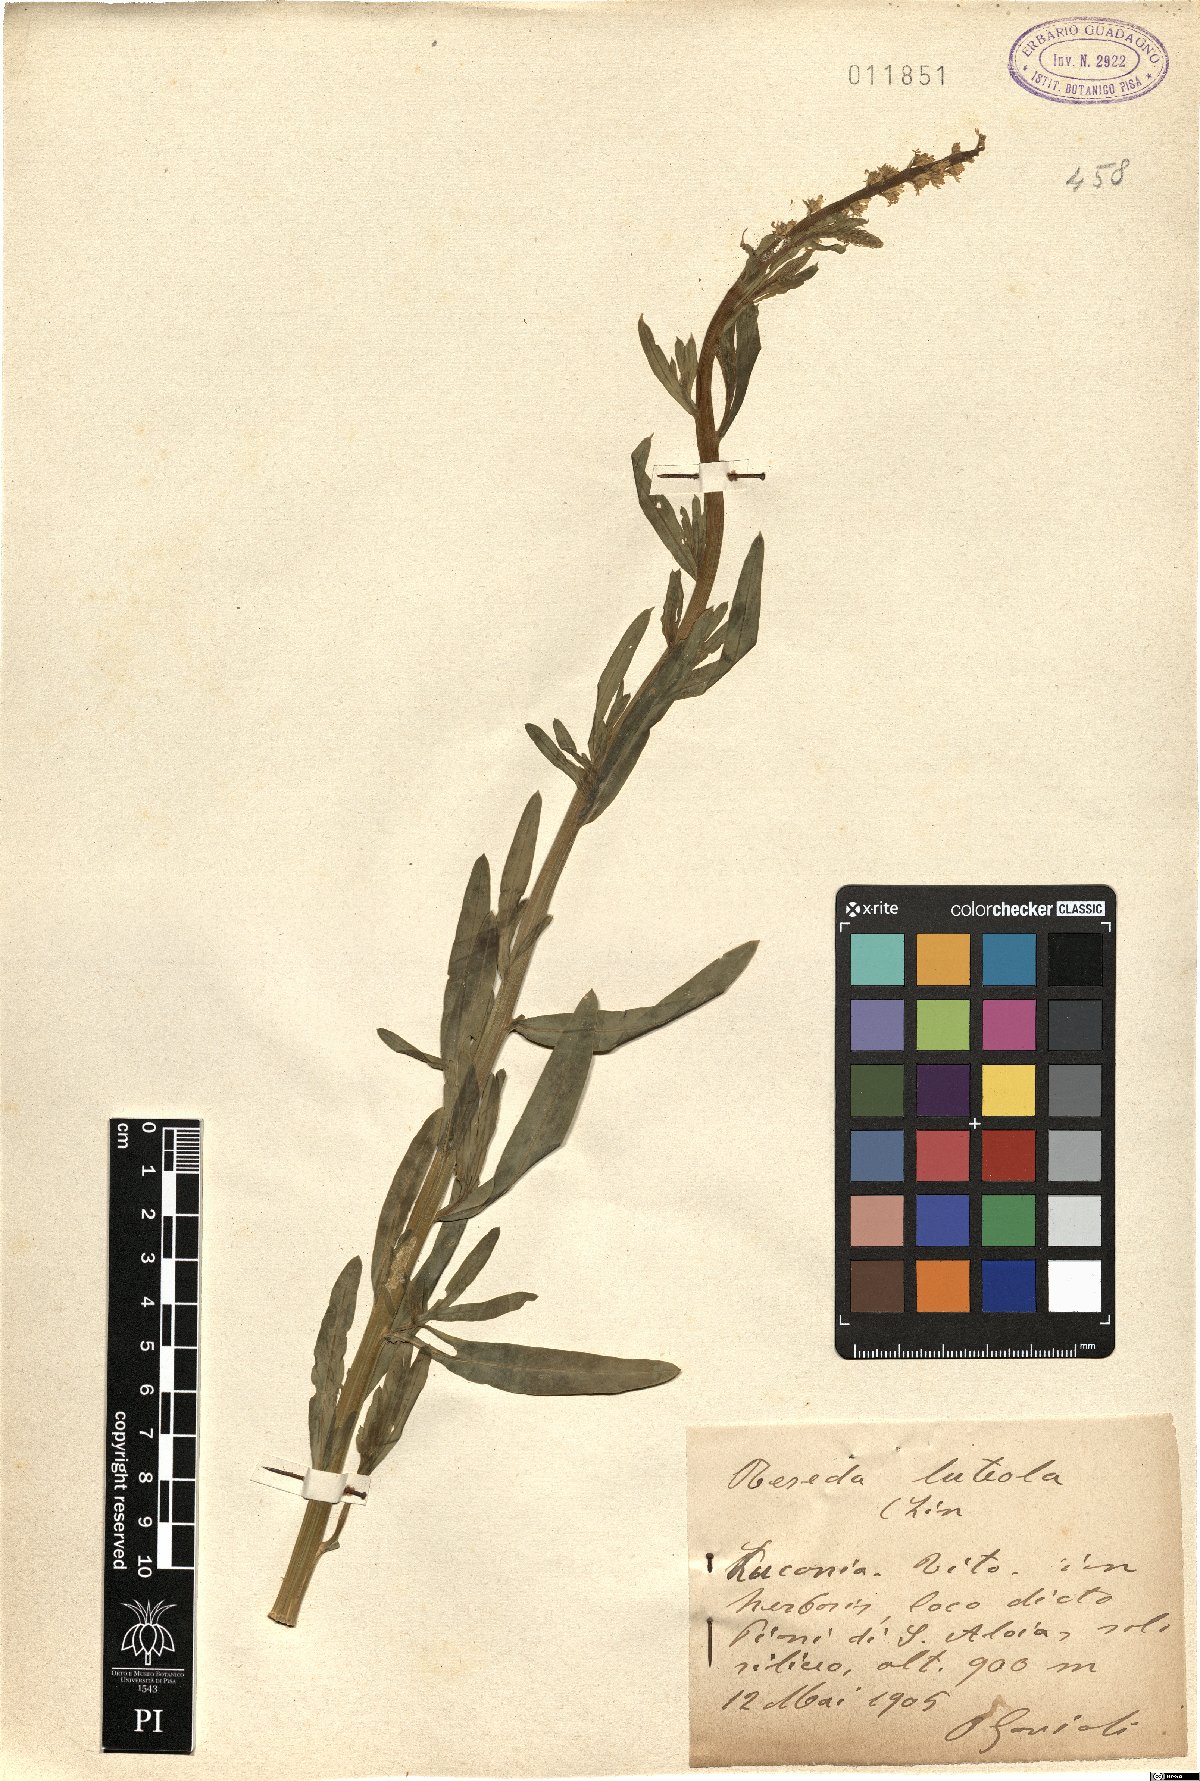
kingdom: Plantae
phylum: Tracheophyta
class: Magnoliopsida
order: Brassicales
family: Resedaceae
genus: Reseda
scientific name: Reseda luteola
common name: Weld
